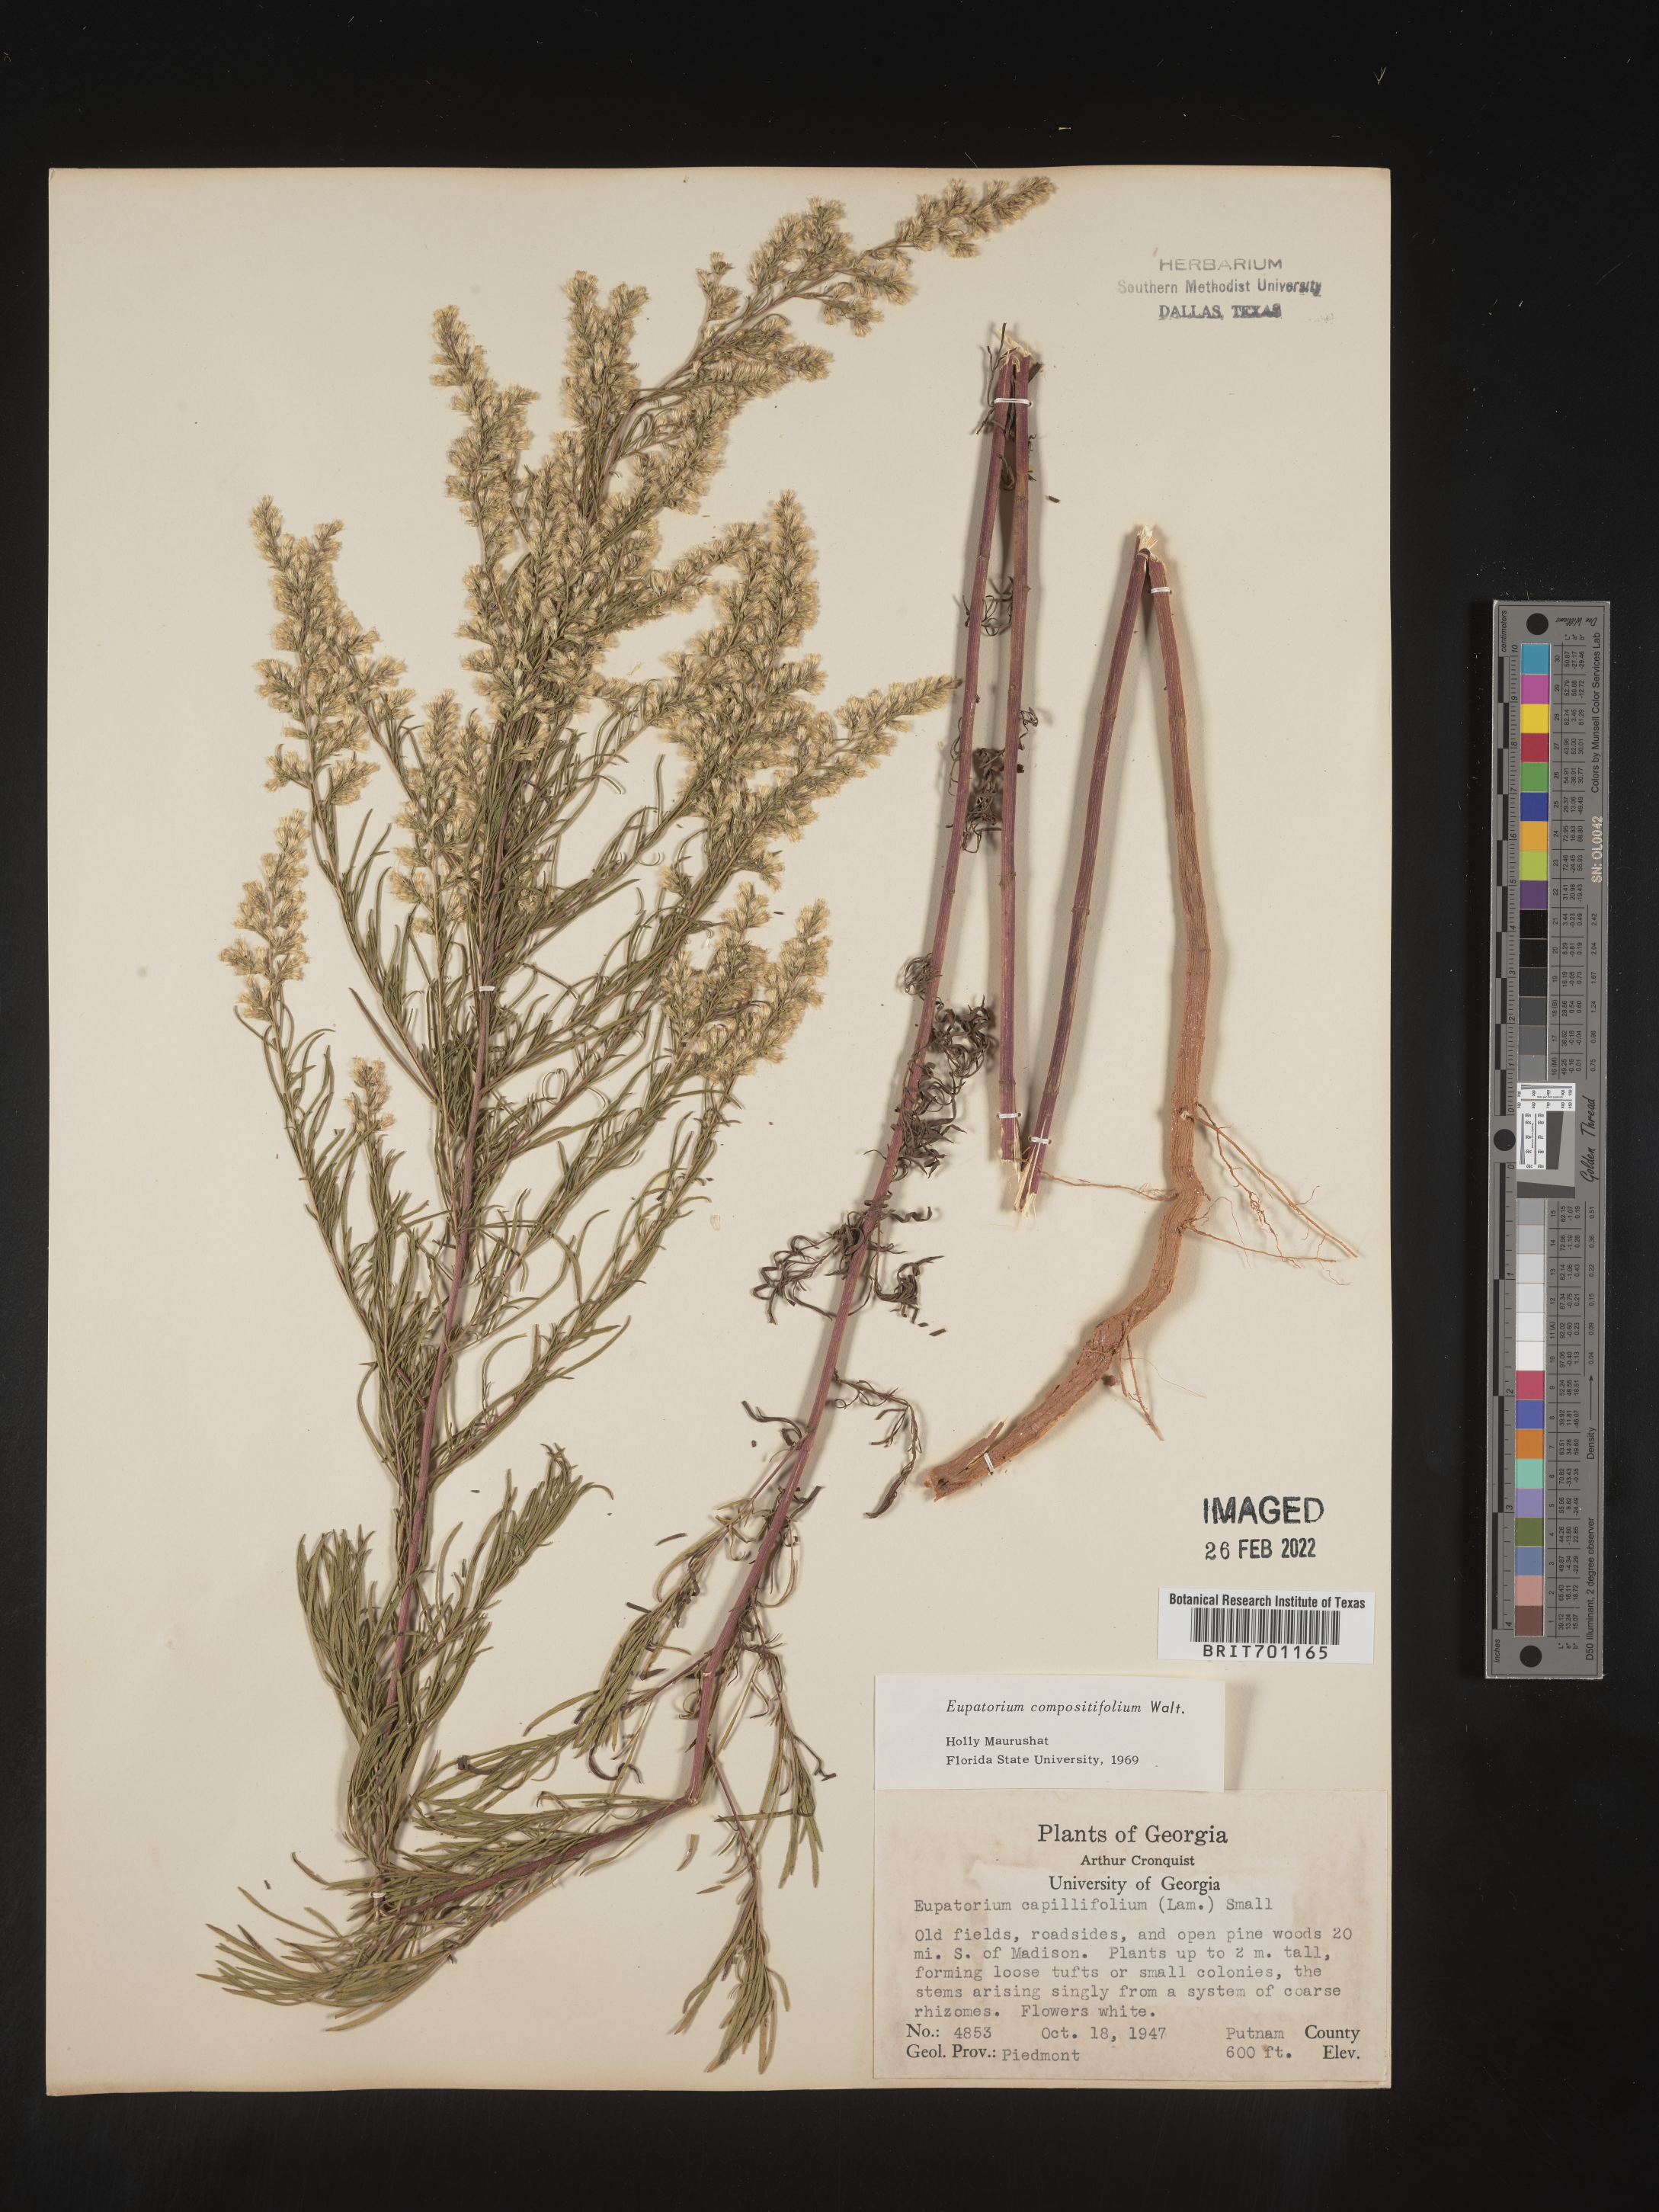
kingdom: Plantae
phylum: Tracheophyta
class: Magnoliopsida
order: Asterales
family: Asteraceae
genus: Eupatorium
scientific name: Eupatorium compositifolium
